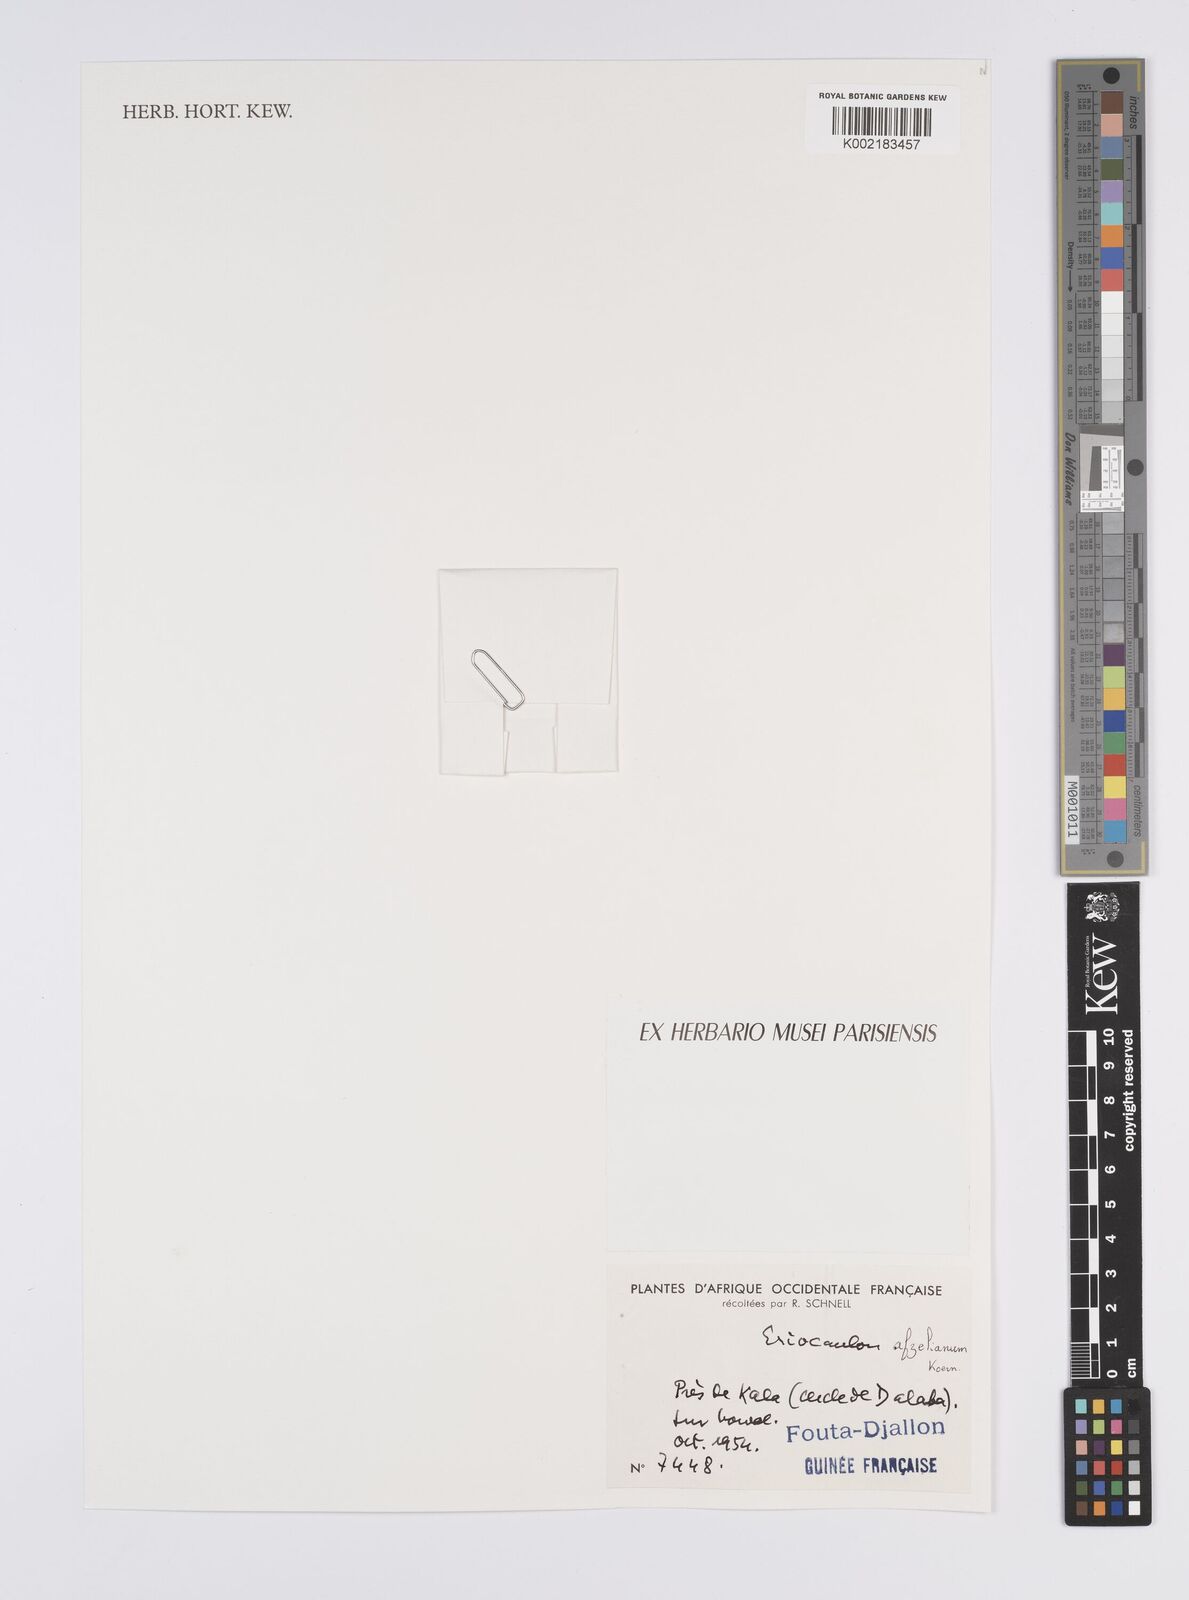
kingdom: Plantae
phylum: Tracheophyta
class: Liliopsida
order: Poales
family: Eriocaulaceae
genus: Eriocaulon
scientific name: Eriocaulon afzelianum
